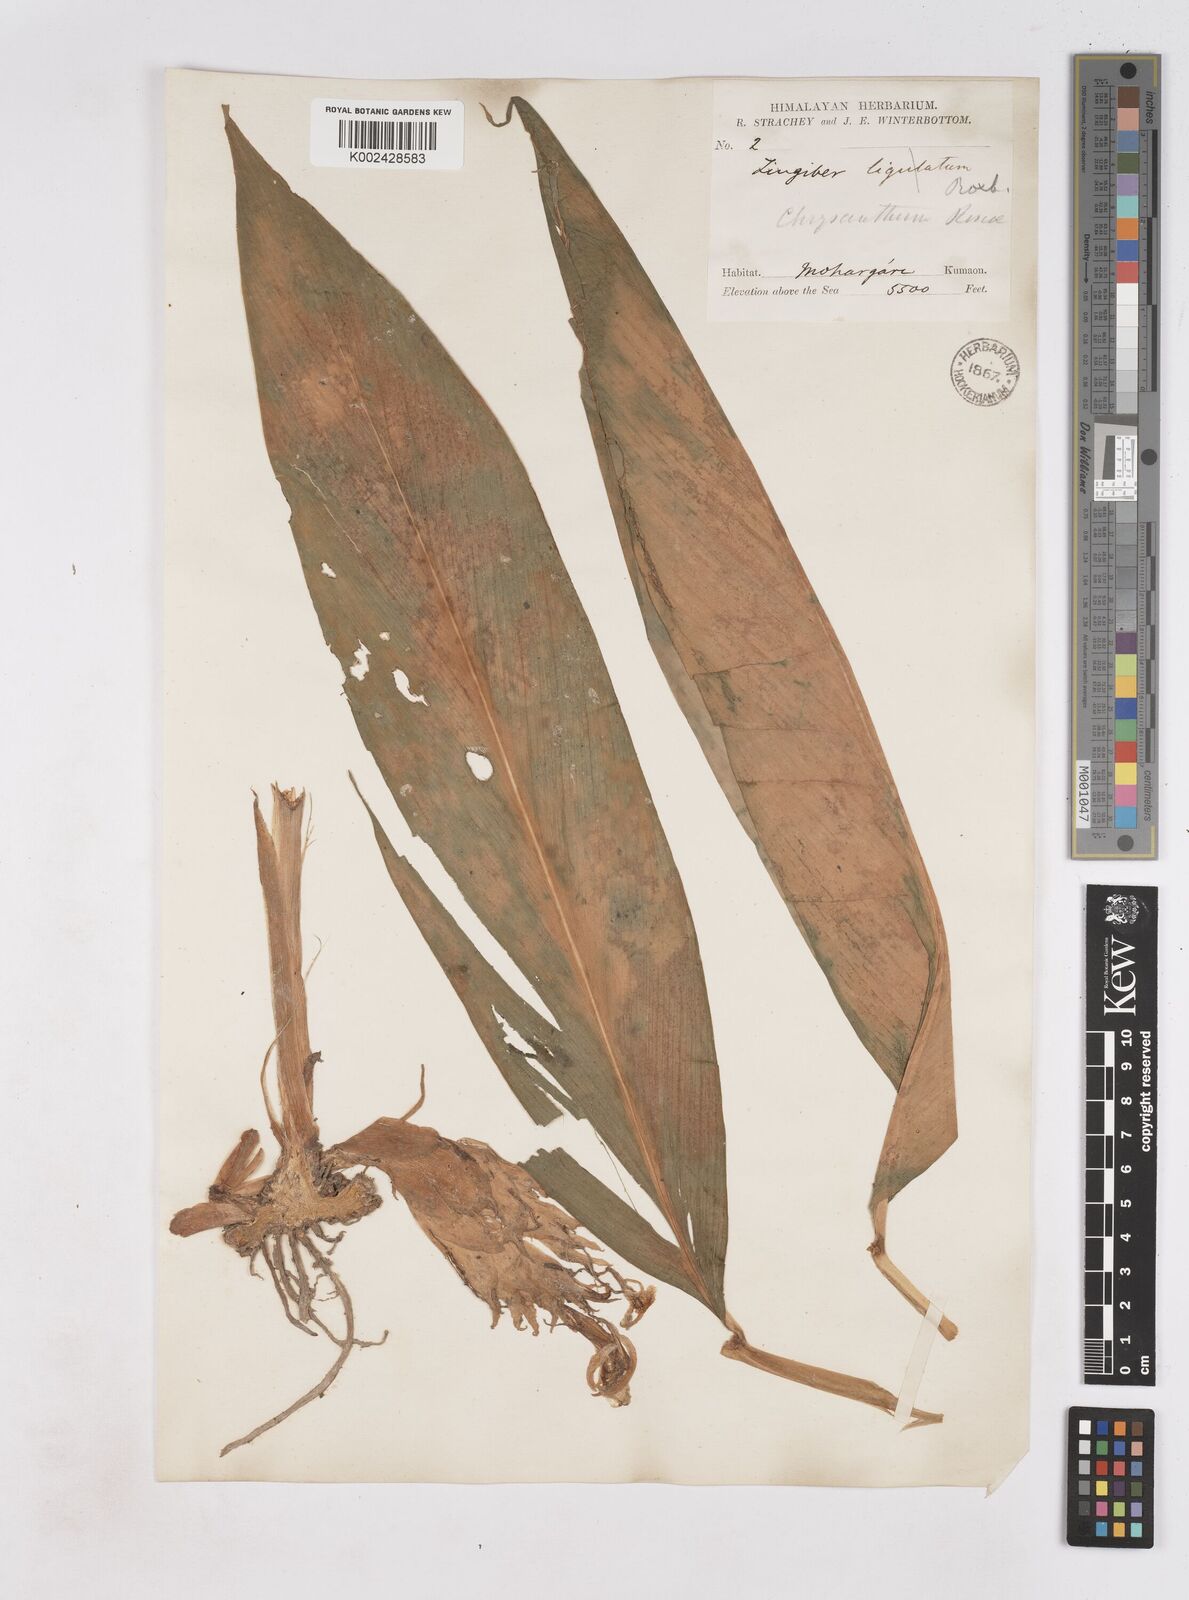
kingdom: Plantae
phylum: Tracheophyta
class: Liliopsida
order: Zingiberales
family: Zingiberaceae
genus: Zingiber
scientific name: Zingiber chrysanthum
